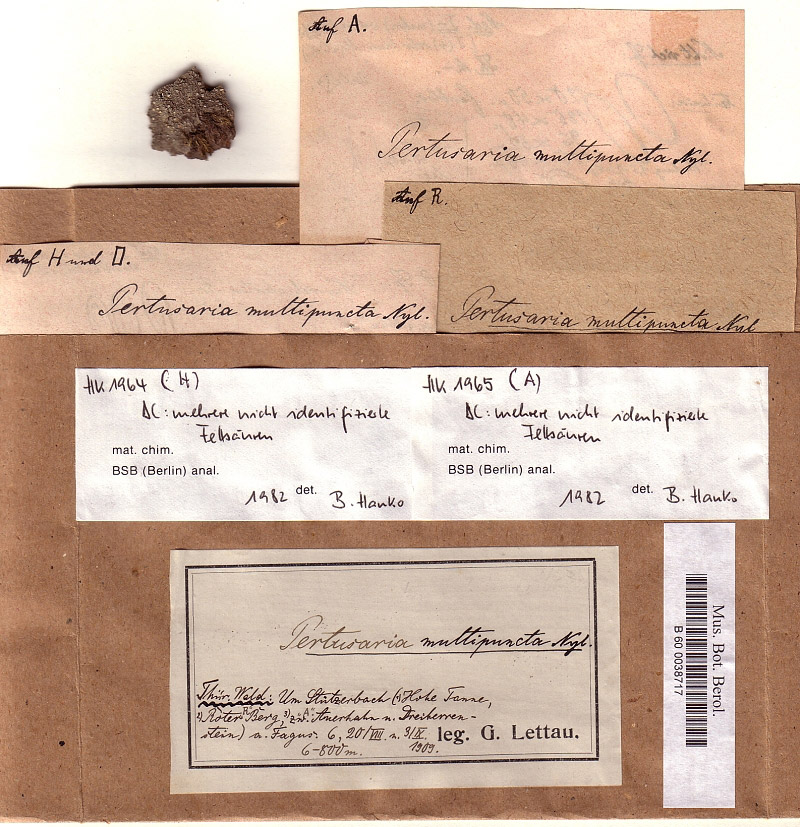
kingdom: Fungi
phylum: Ascomycota
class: Lecanoromycetes
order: Pertusariales
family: Pertusariaceae
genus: Lepra
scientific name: Lepra multipuncta
